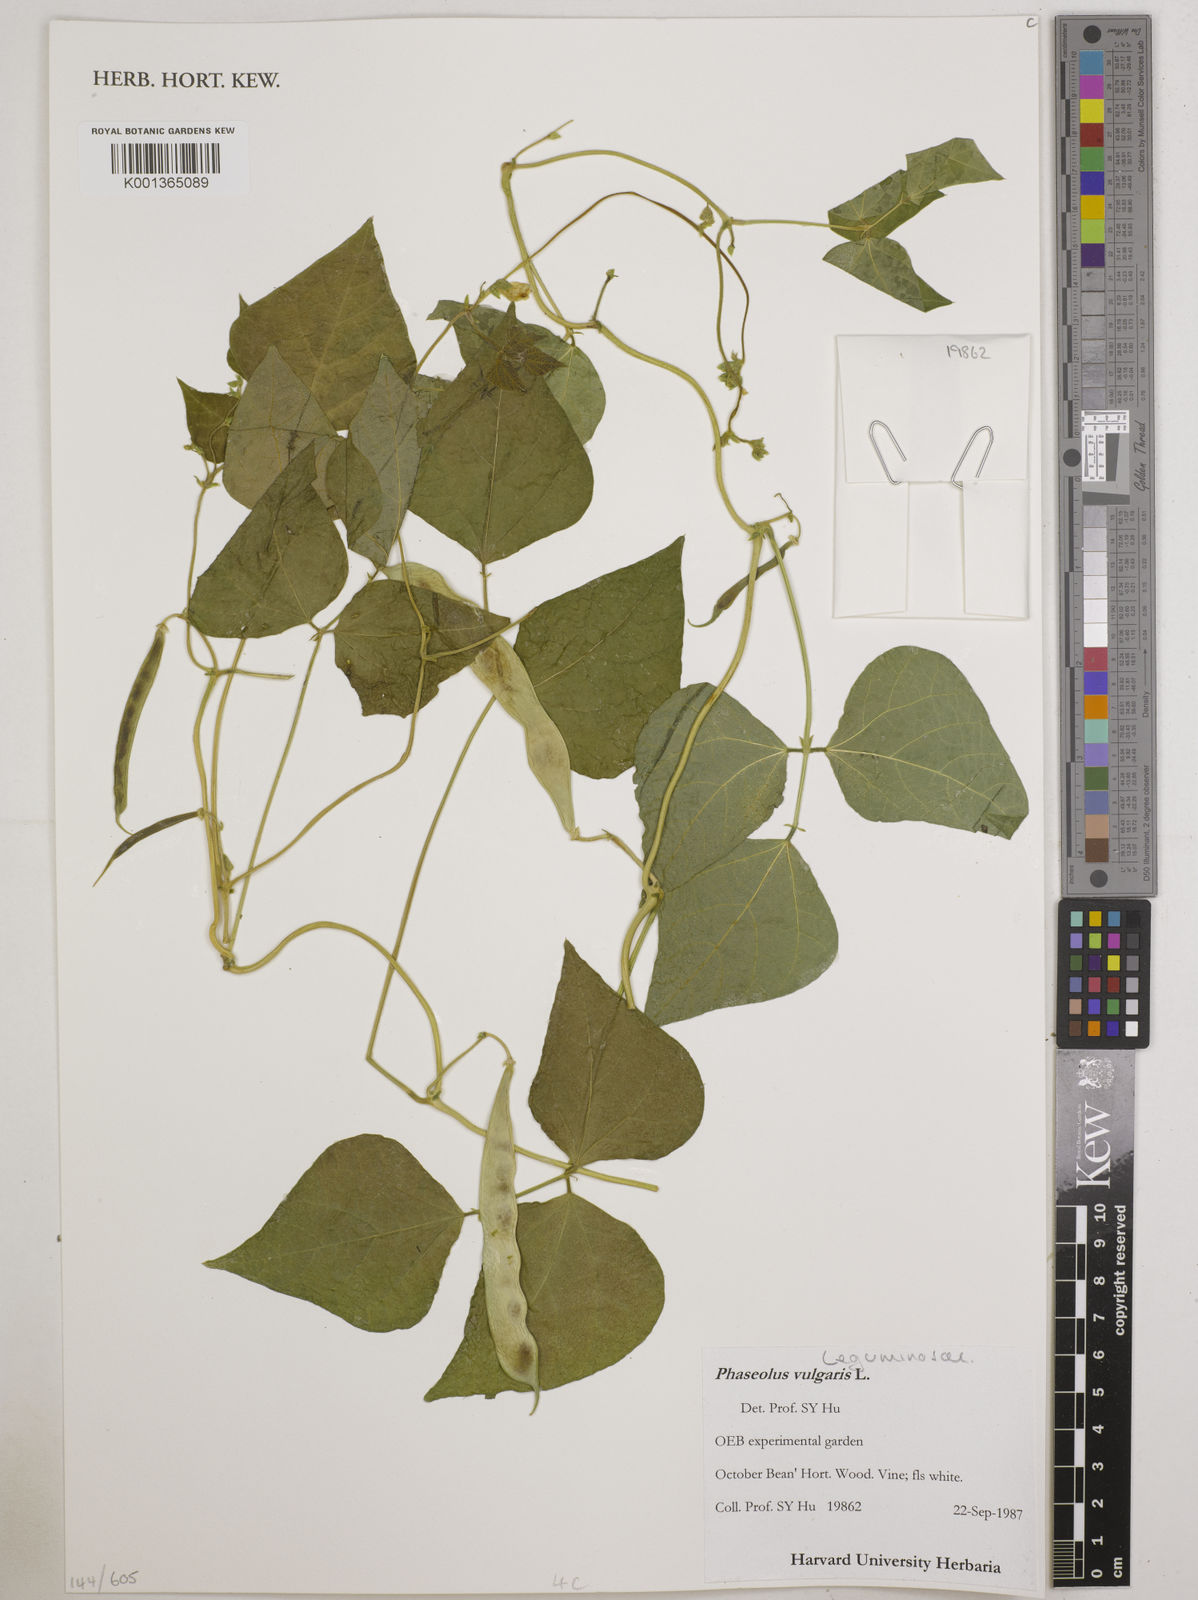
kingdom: Plantae
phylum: Tracheophyta
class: Magnoliopsida
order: Fabales
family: Fabaceae
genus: Phaseolus
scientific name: Phaseolus vulgaris
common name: Bean
